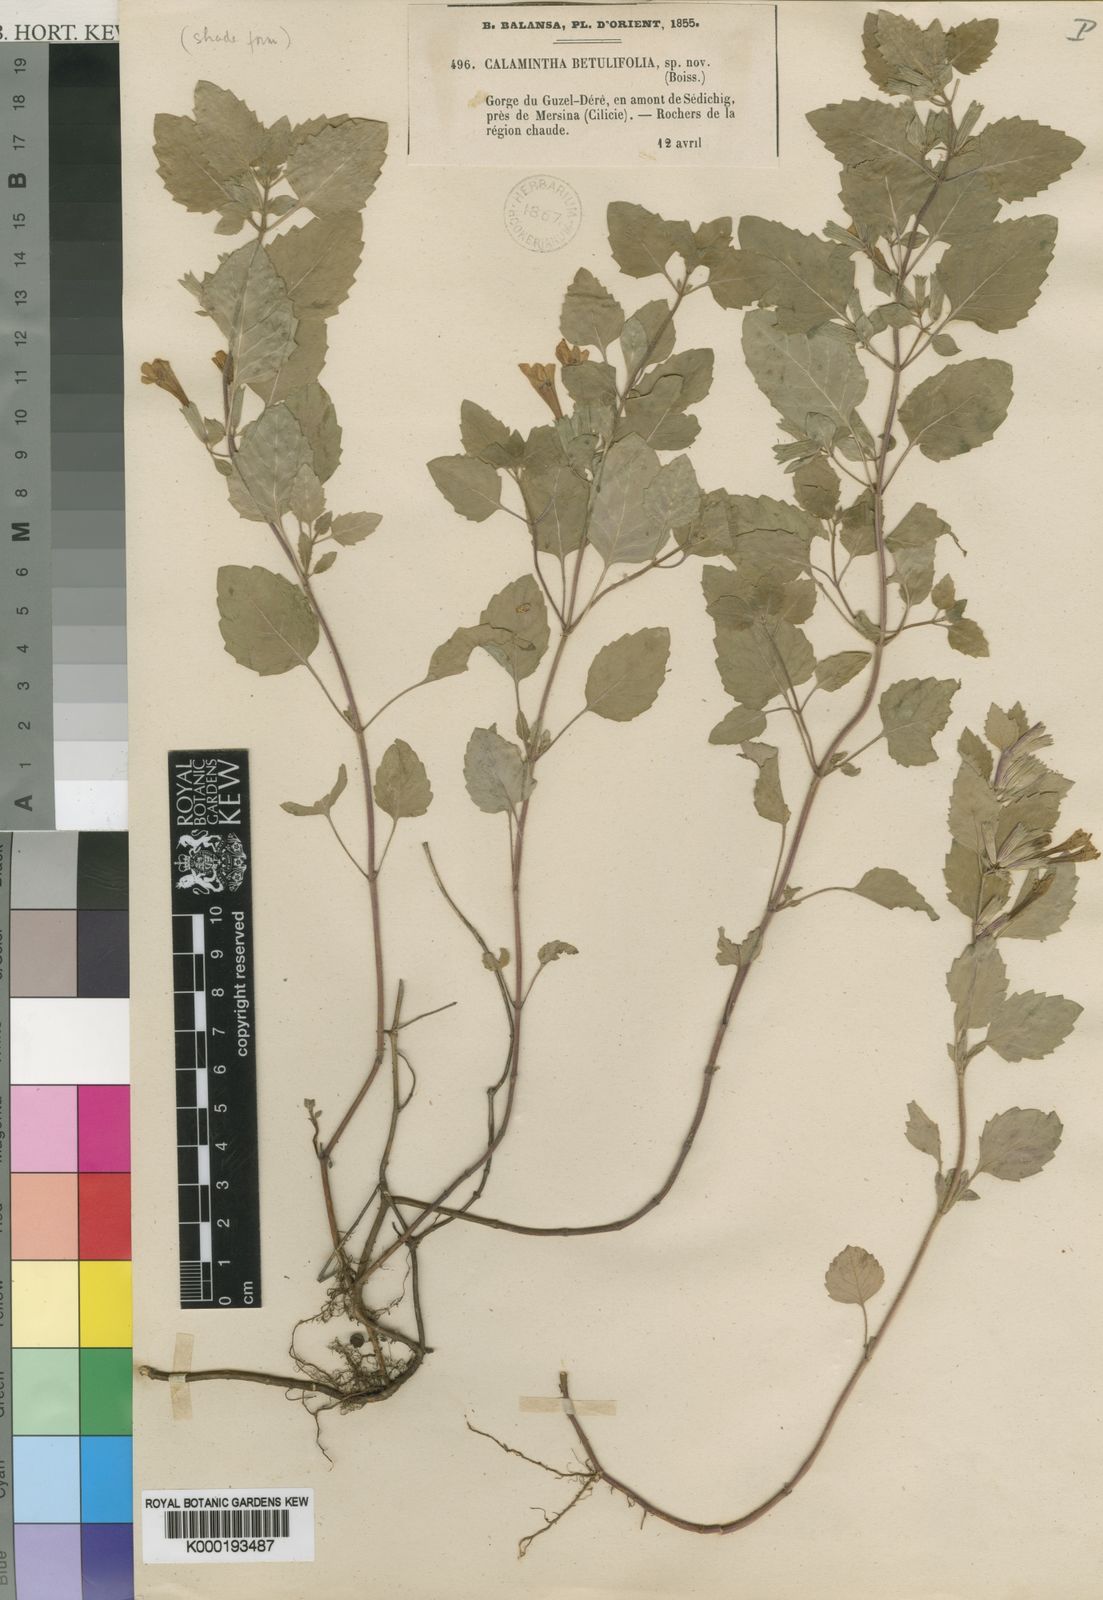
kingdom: Plantae
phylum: Tracheophyta
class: Magnoliopsida
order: Lamiales
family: Lamiaceae
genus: Clinopodium
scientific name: Clinopodium betulifolium
